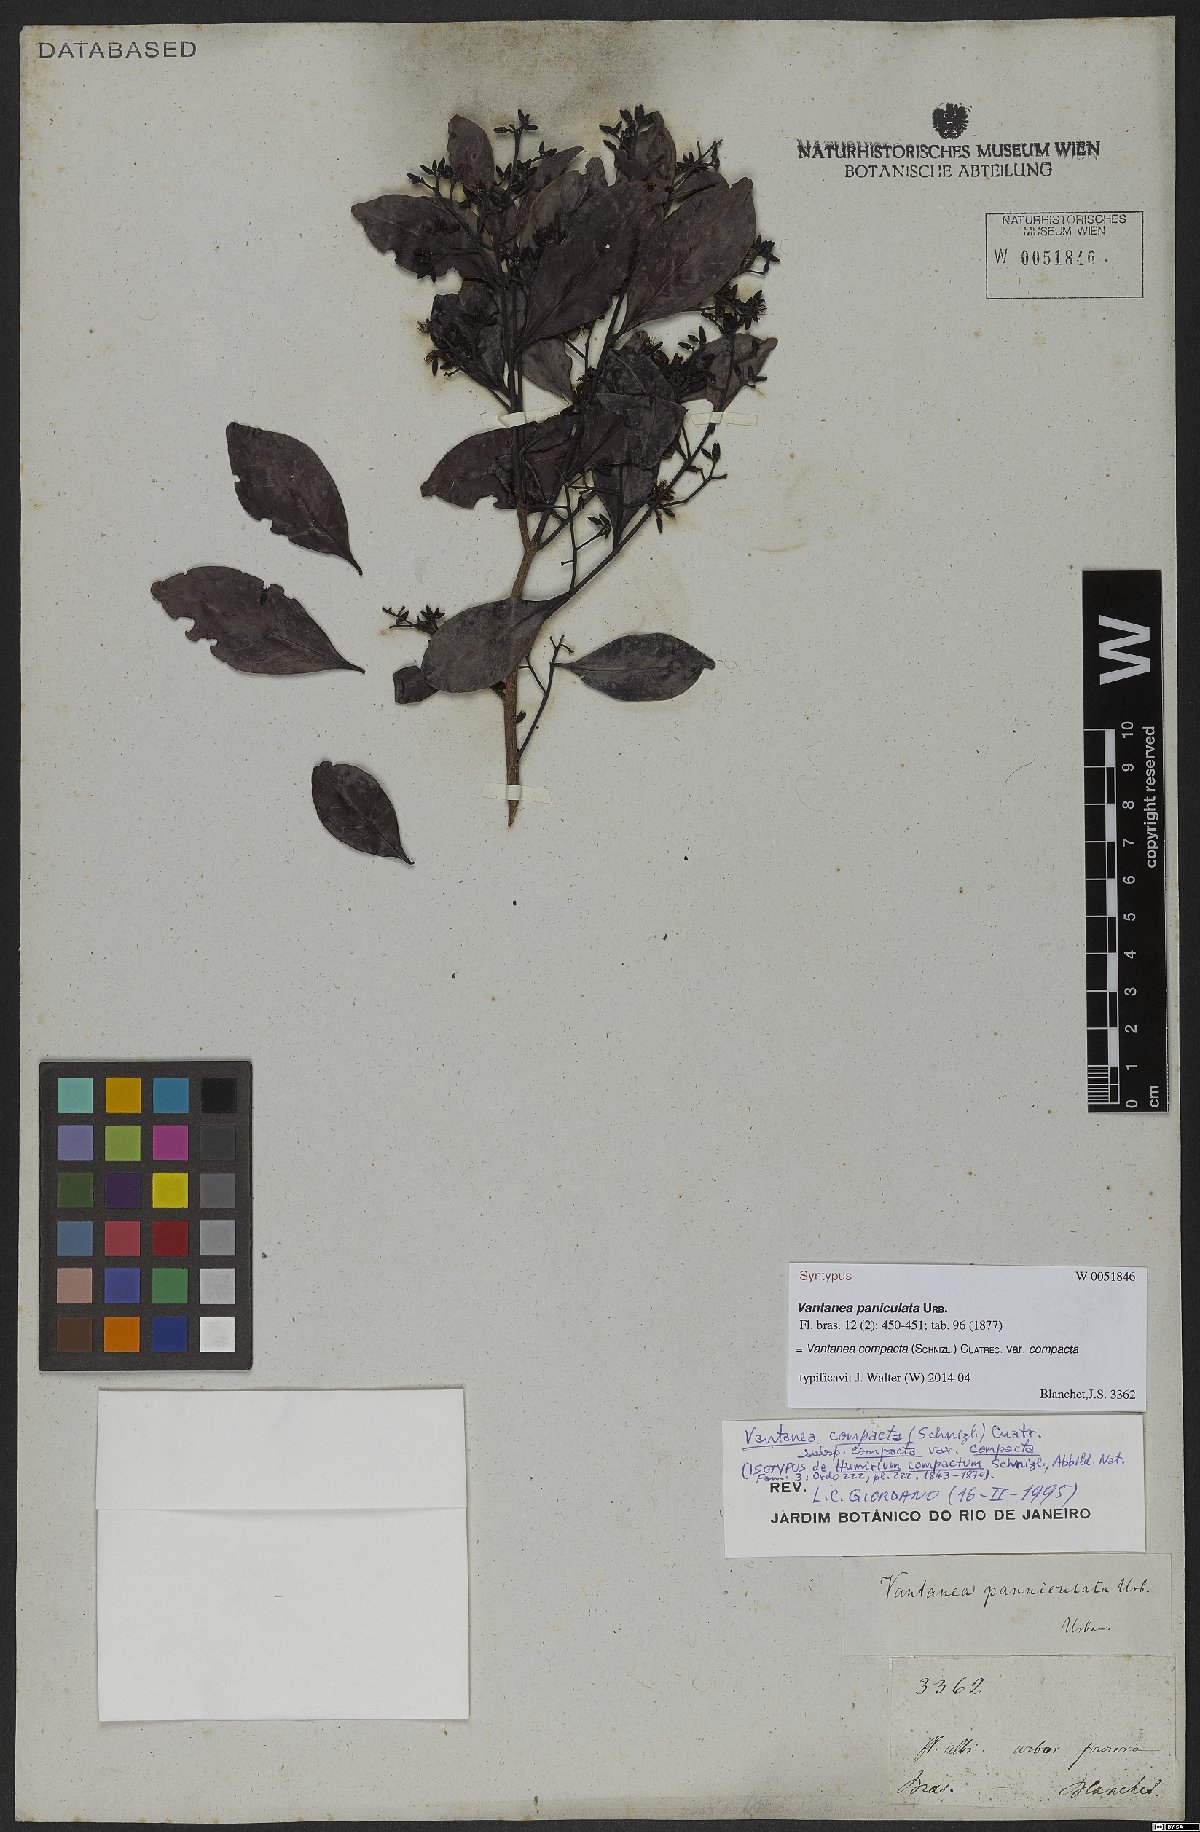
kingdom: Plantae
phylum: Tracheophyta
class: Magnoliopsida
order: Malpighiales
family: Humiriaceae
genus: Vantanea
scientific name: Vantanea compacta
